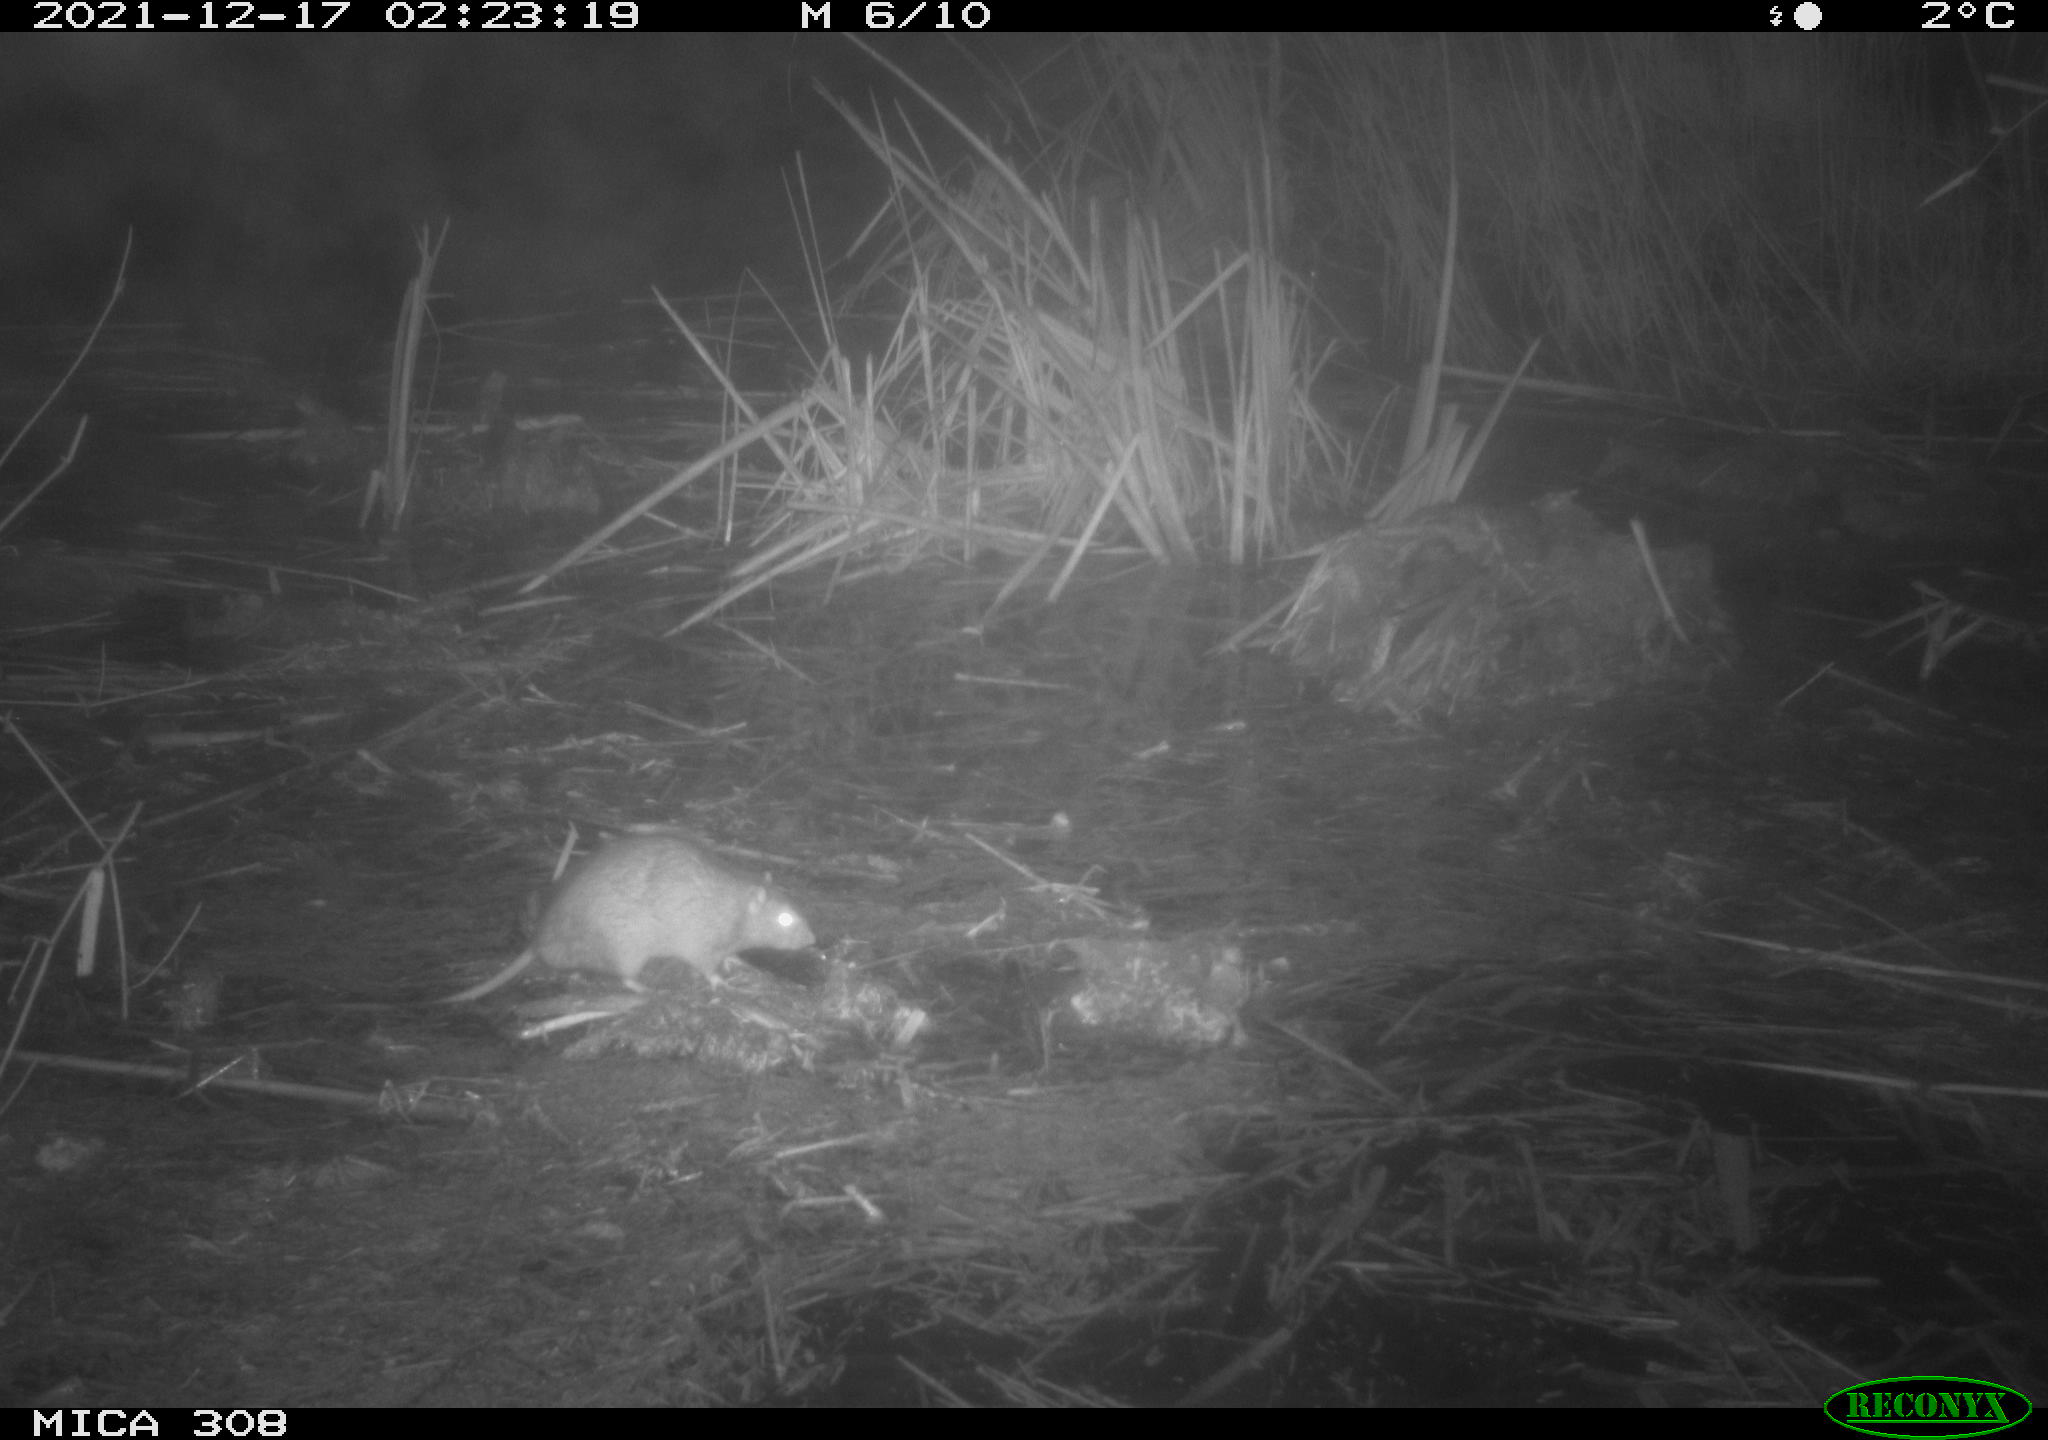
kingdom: Animalia
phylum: Chordata
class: Mammalia
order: Rodentia
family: Muridae
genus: Rattus
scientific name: Rattus norvegicus
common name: Brown rat
